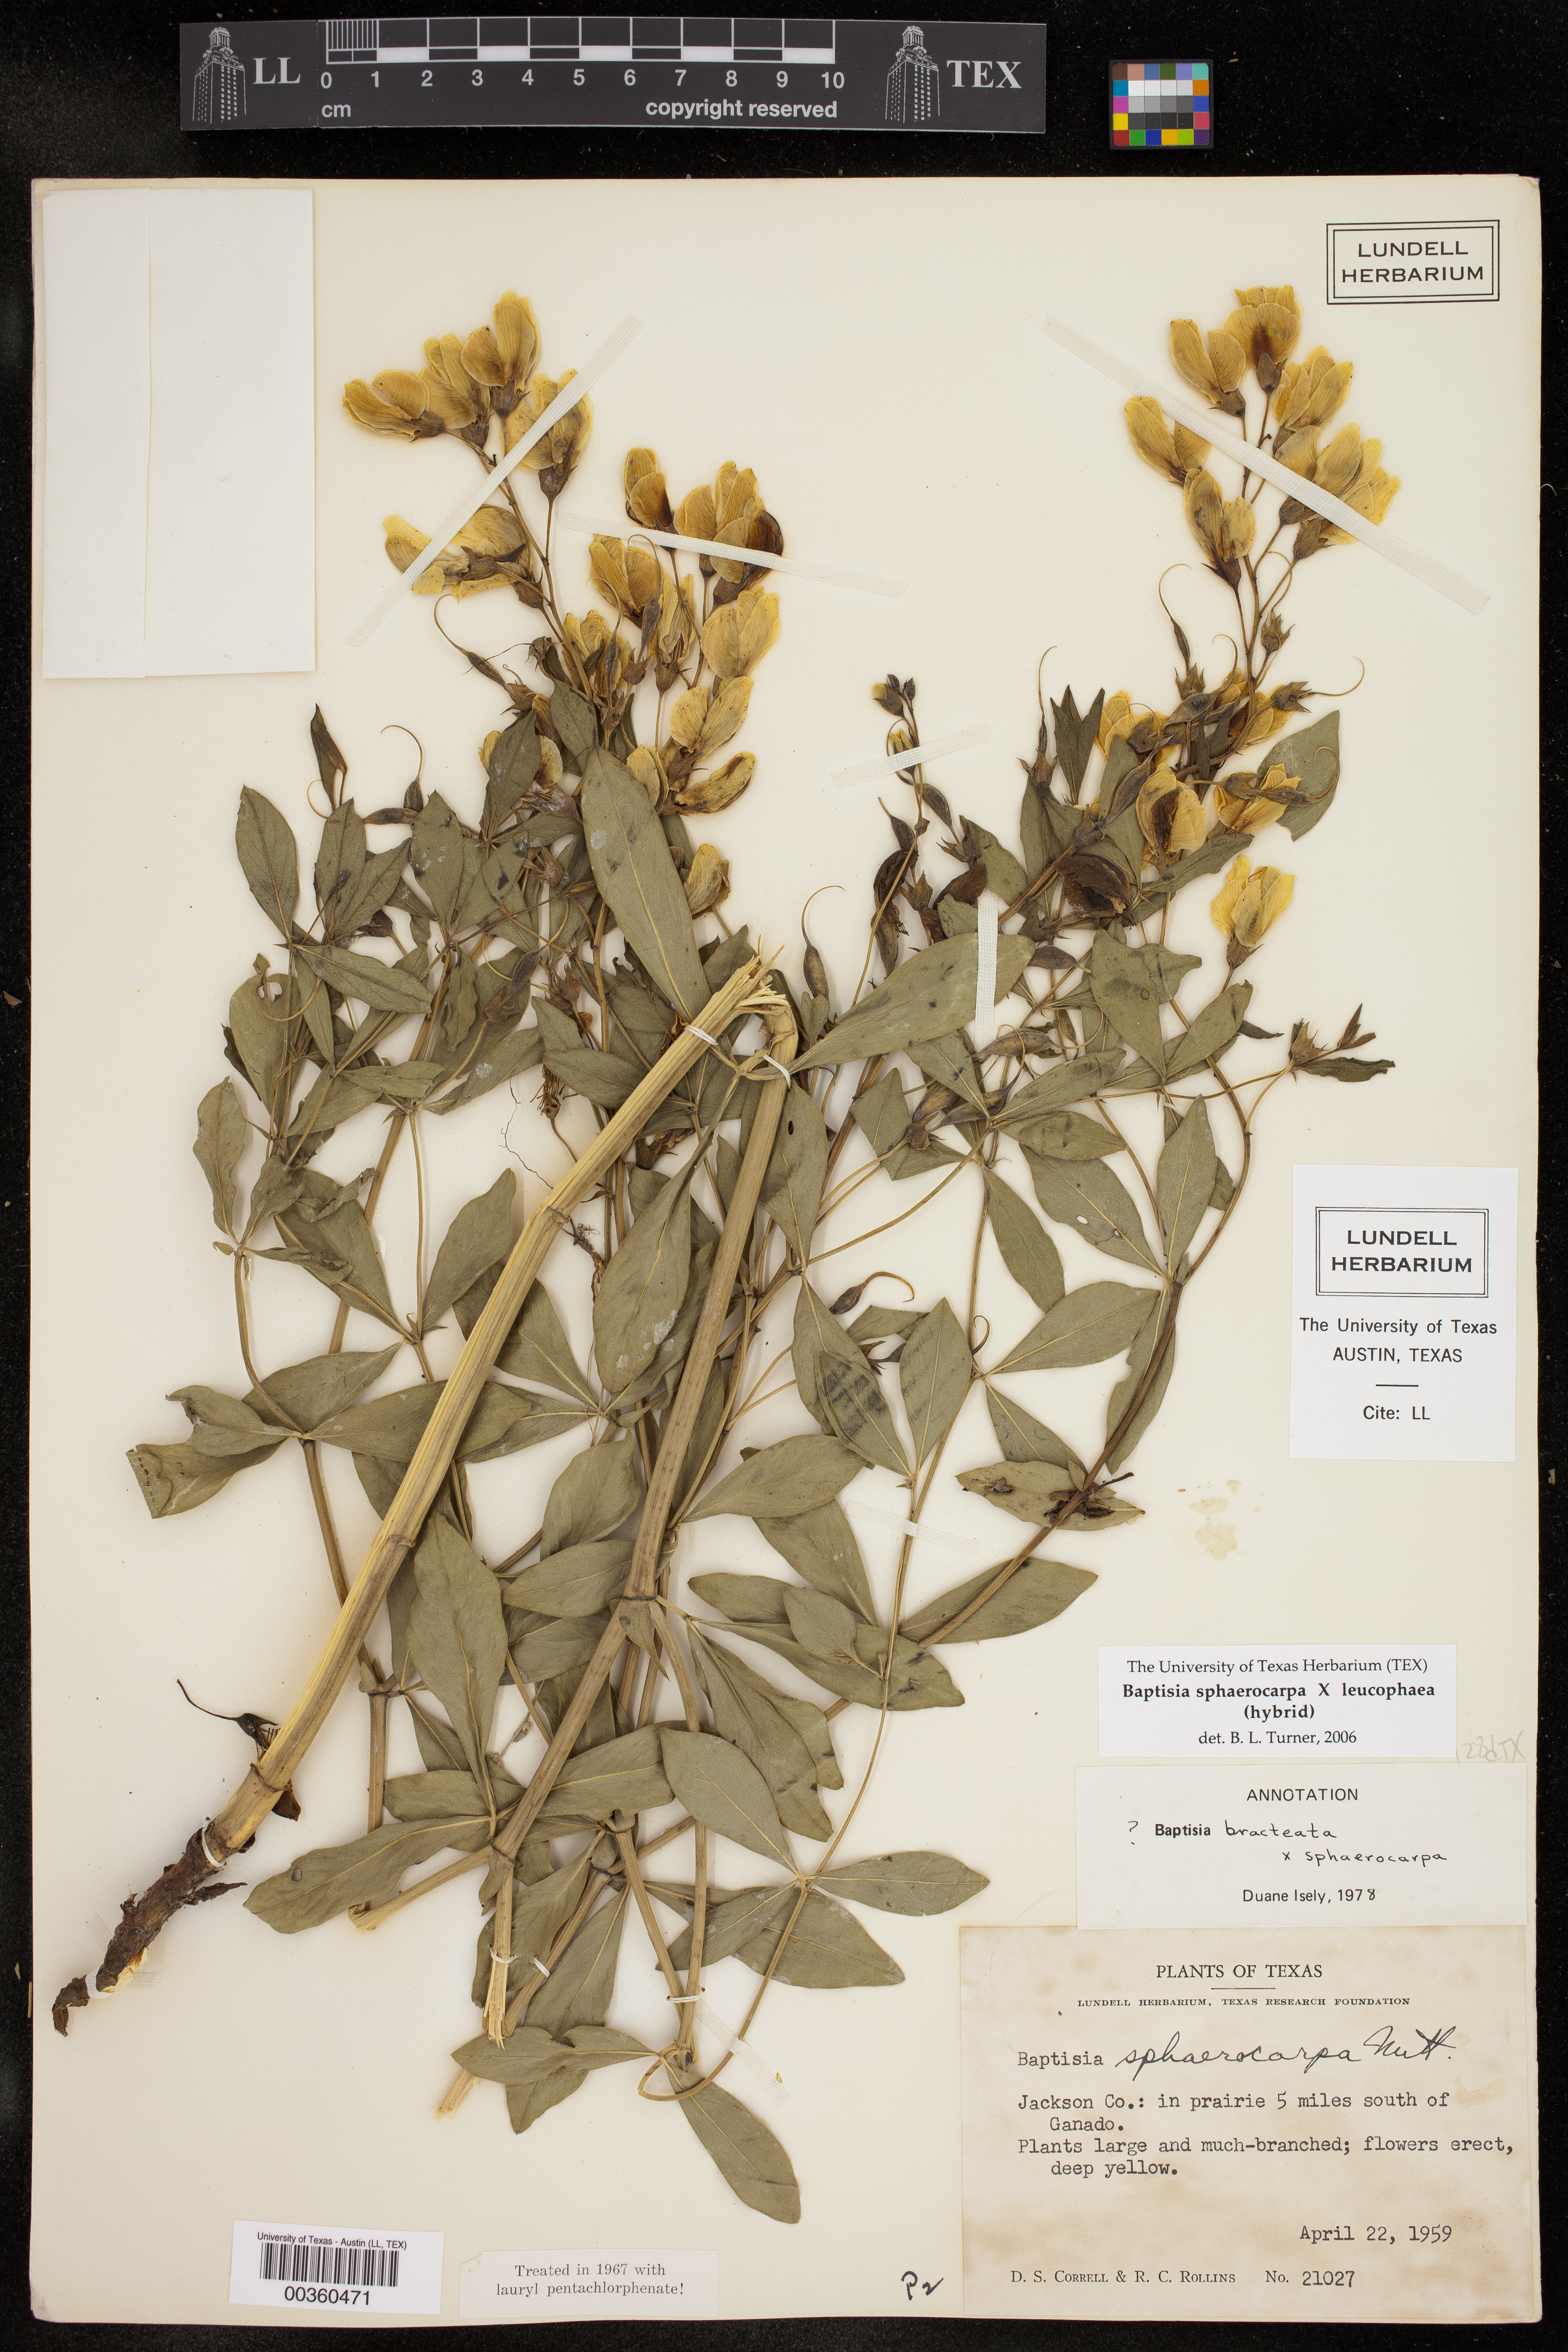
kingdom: Plantae
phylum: Tracheophyta
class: Magnoliopsida
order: Fabales
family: Fabaceae
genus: Baptisia
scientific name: Baptisia
